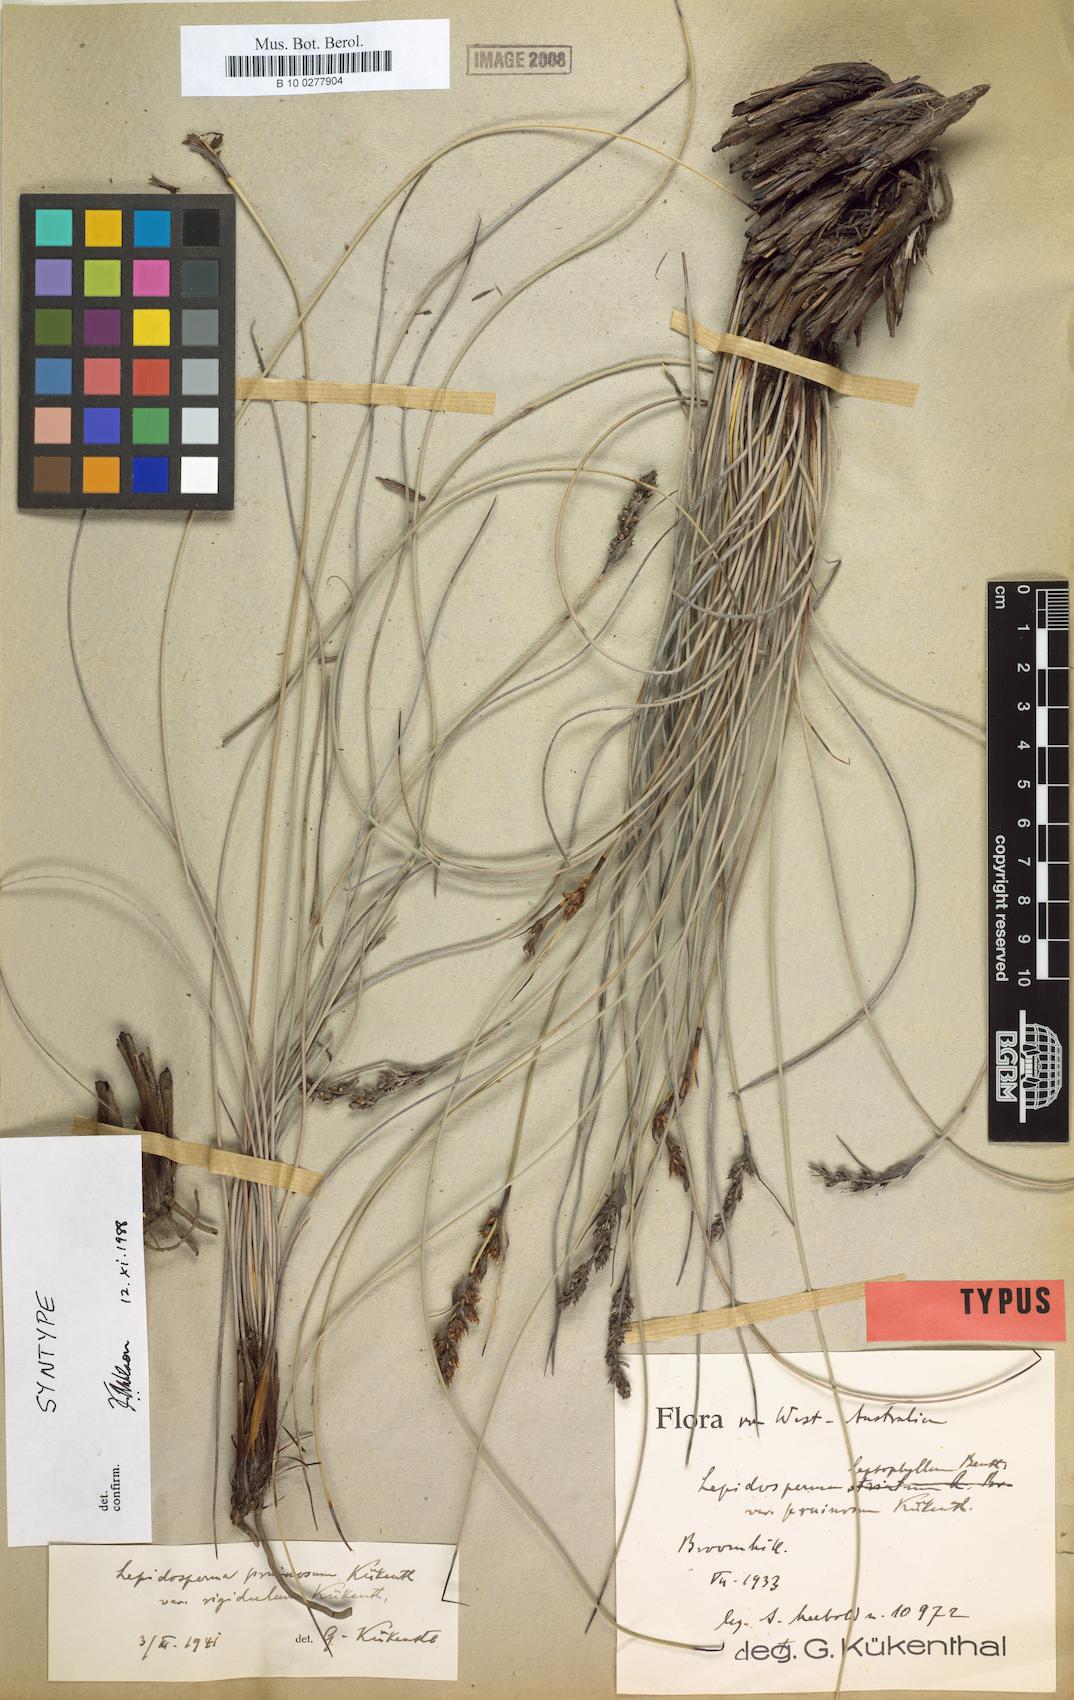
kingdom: Plantae
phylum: Tracheophyta
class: Liliopsida
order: Poales
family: Cyperaceae
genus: Lepidosperma
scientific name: Lepidosperma rigidulum
